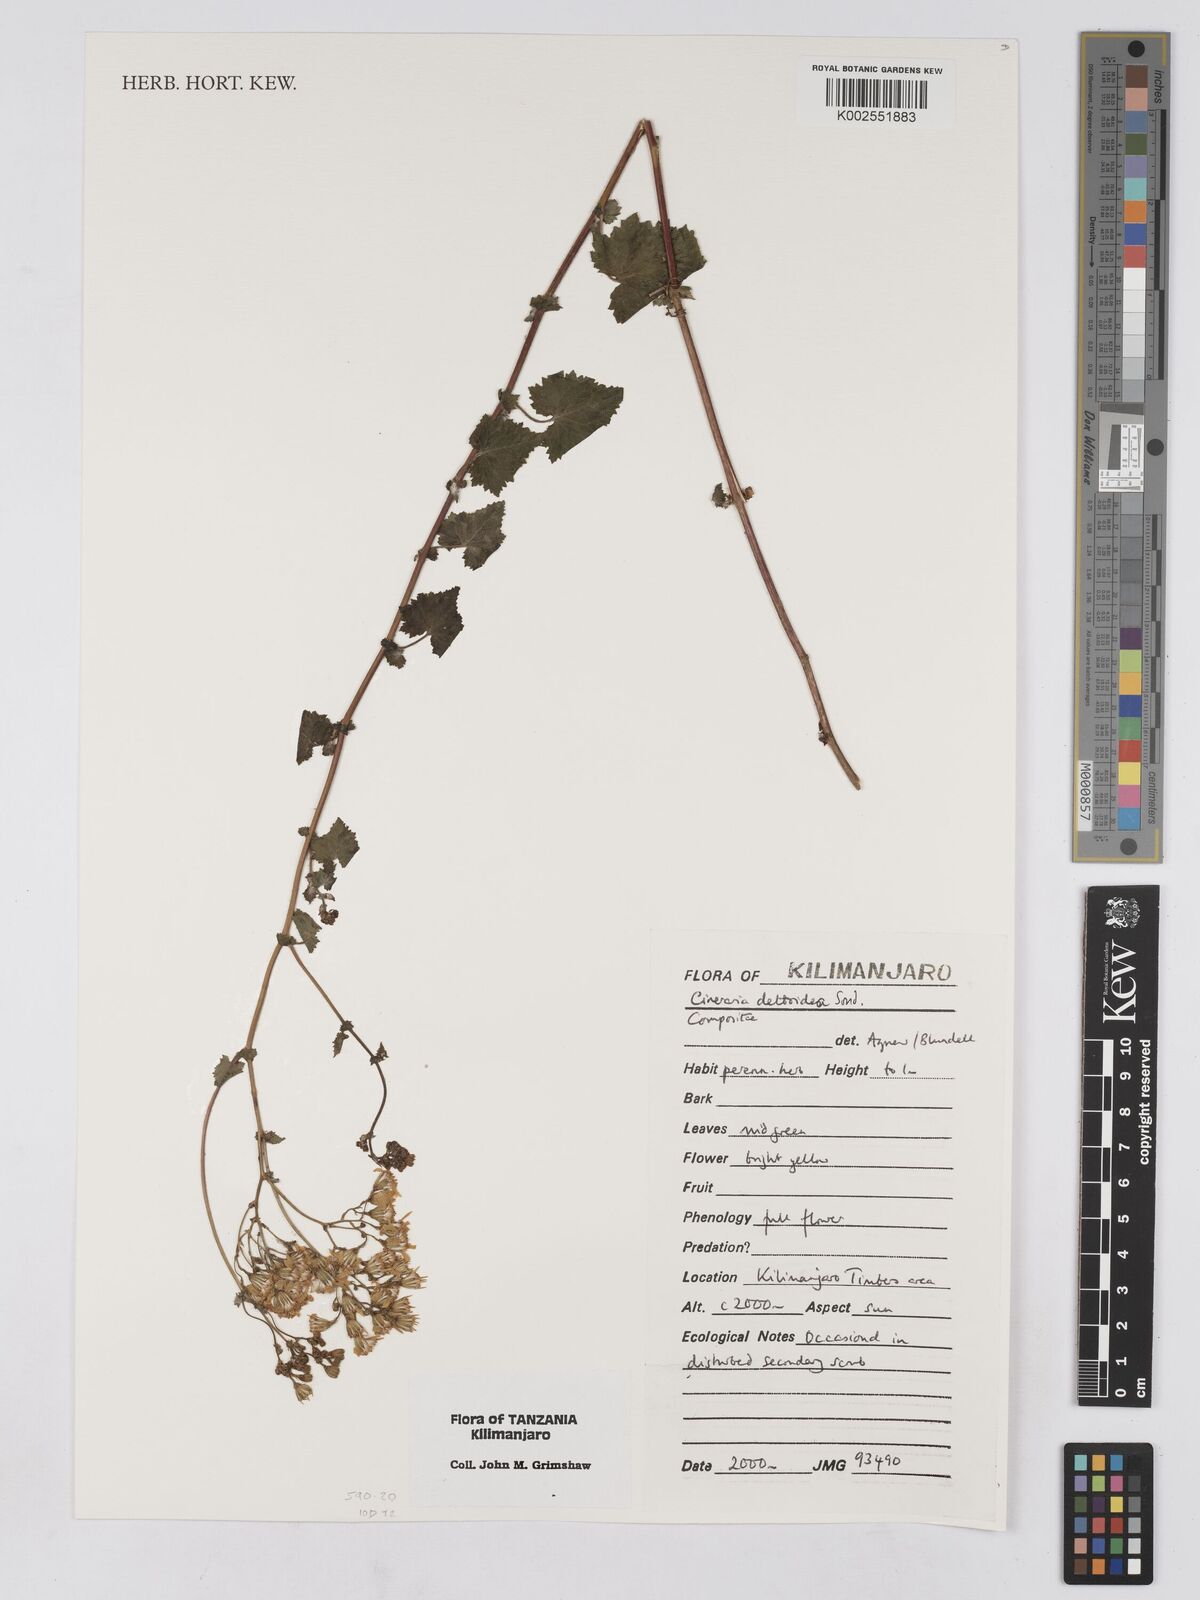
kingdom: Plantae
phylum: Tracheophyta
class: Magnoliopsida
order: Asterales
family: Asteraceae
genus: Cineraria
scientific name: Cineraria deltoidea
